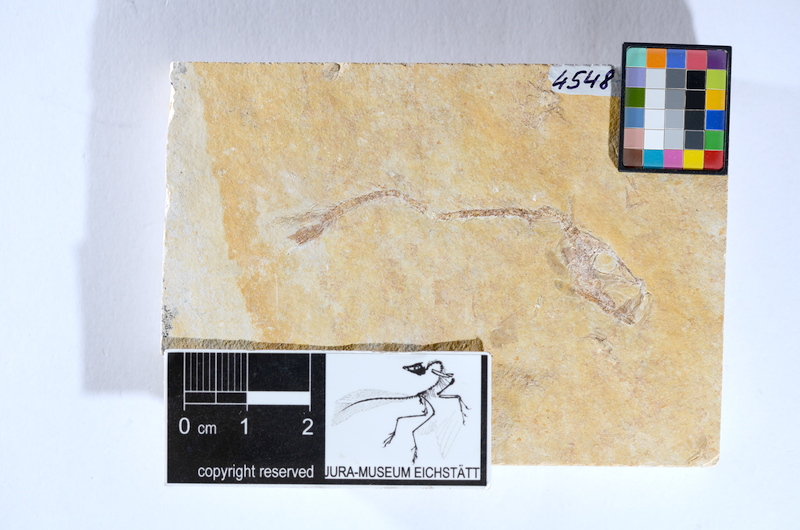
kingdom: Animalia
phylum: Chordata
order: Salmoniformes
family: Orthogonikleithridae
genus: Leptolepides
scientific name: Leptolepides sprattiformis
